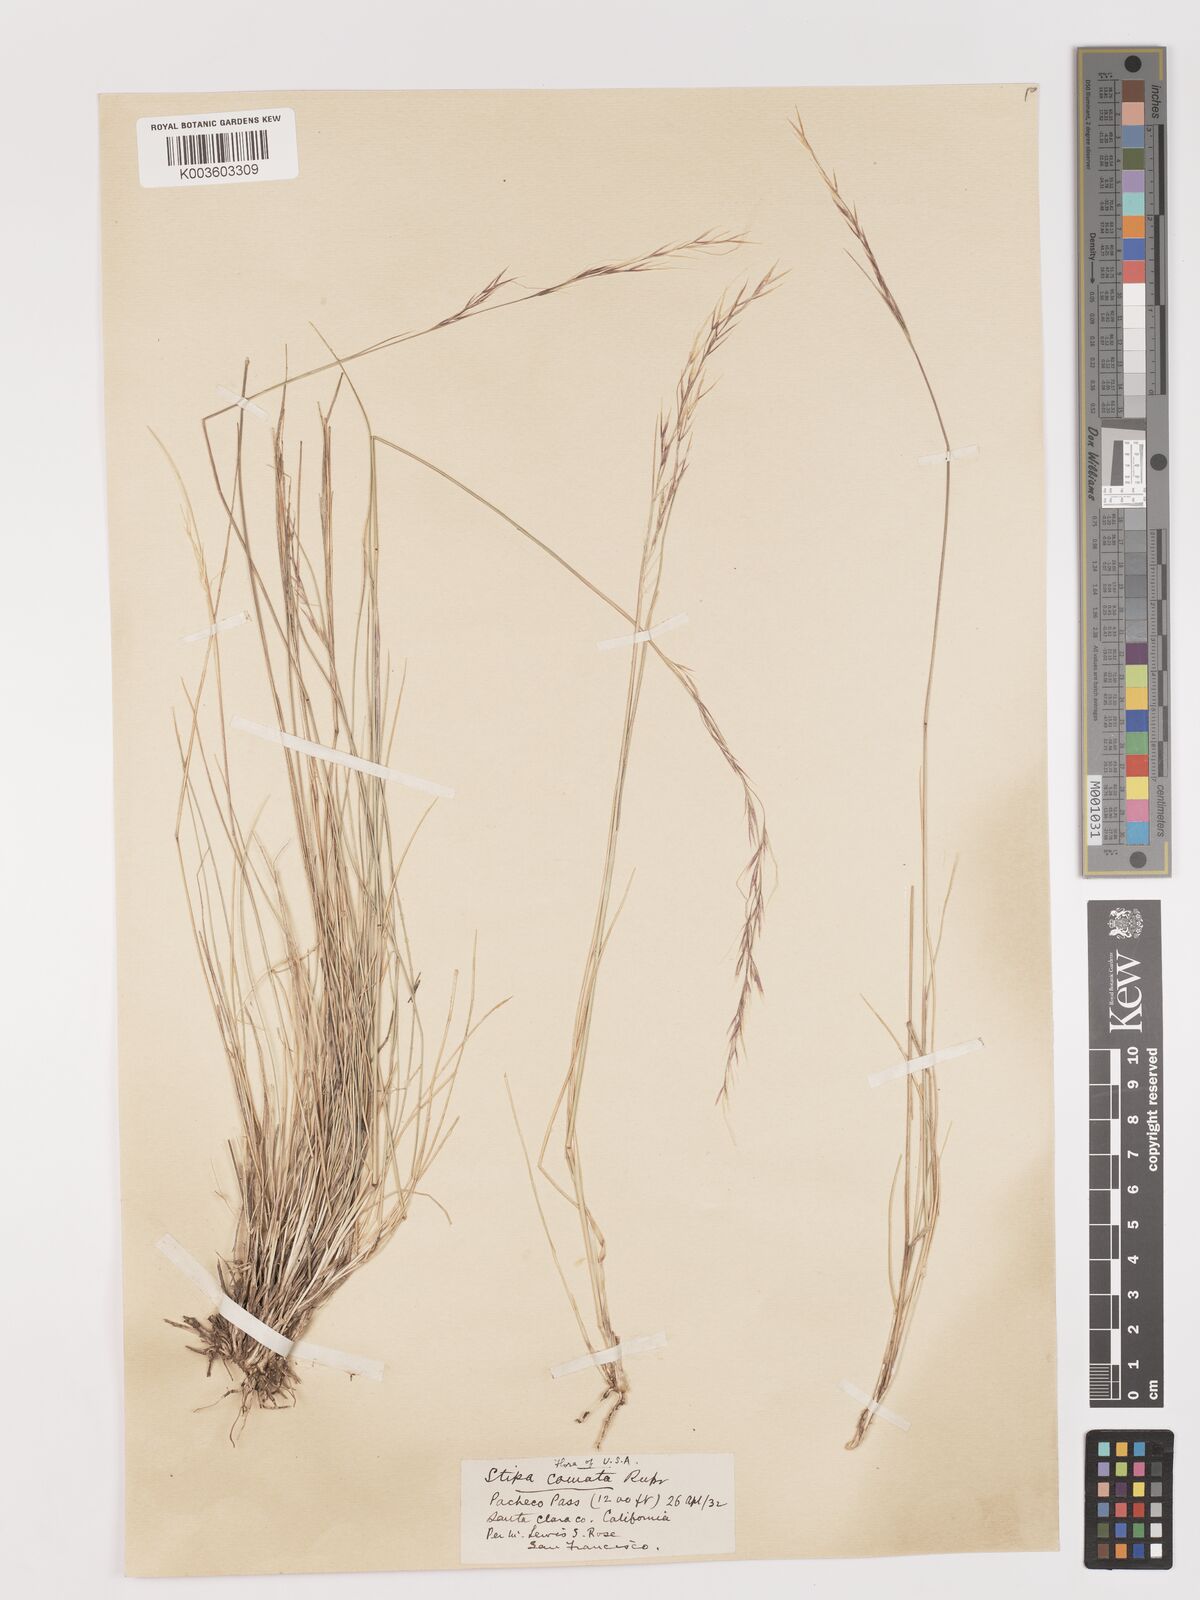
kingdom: Plantae
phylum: Tracheophyta
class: Liliopsida
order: Poales
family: Poaceae
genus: Stipa
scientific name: Stipa
